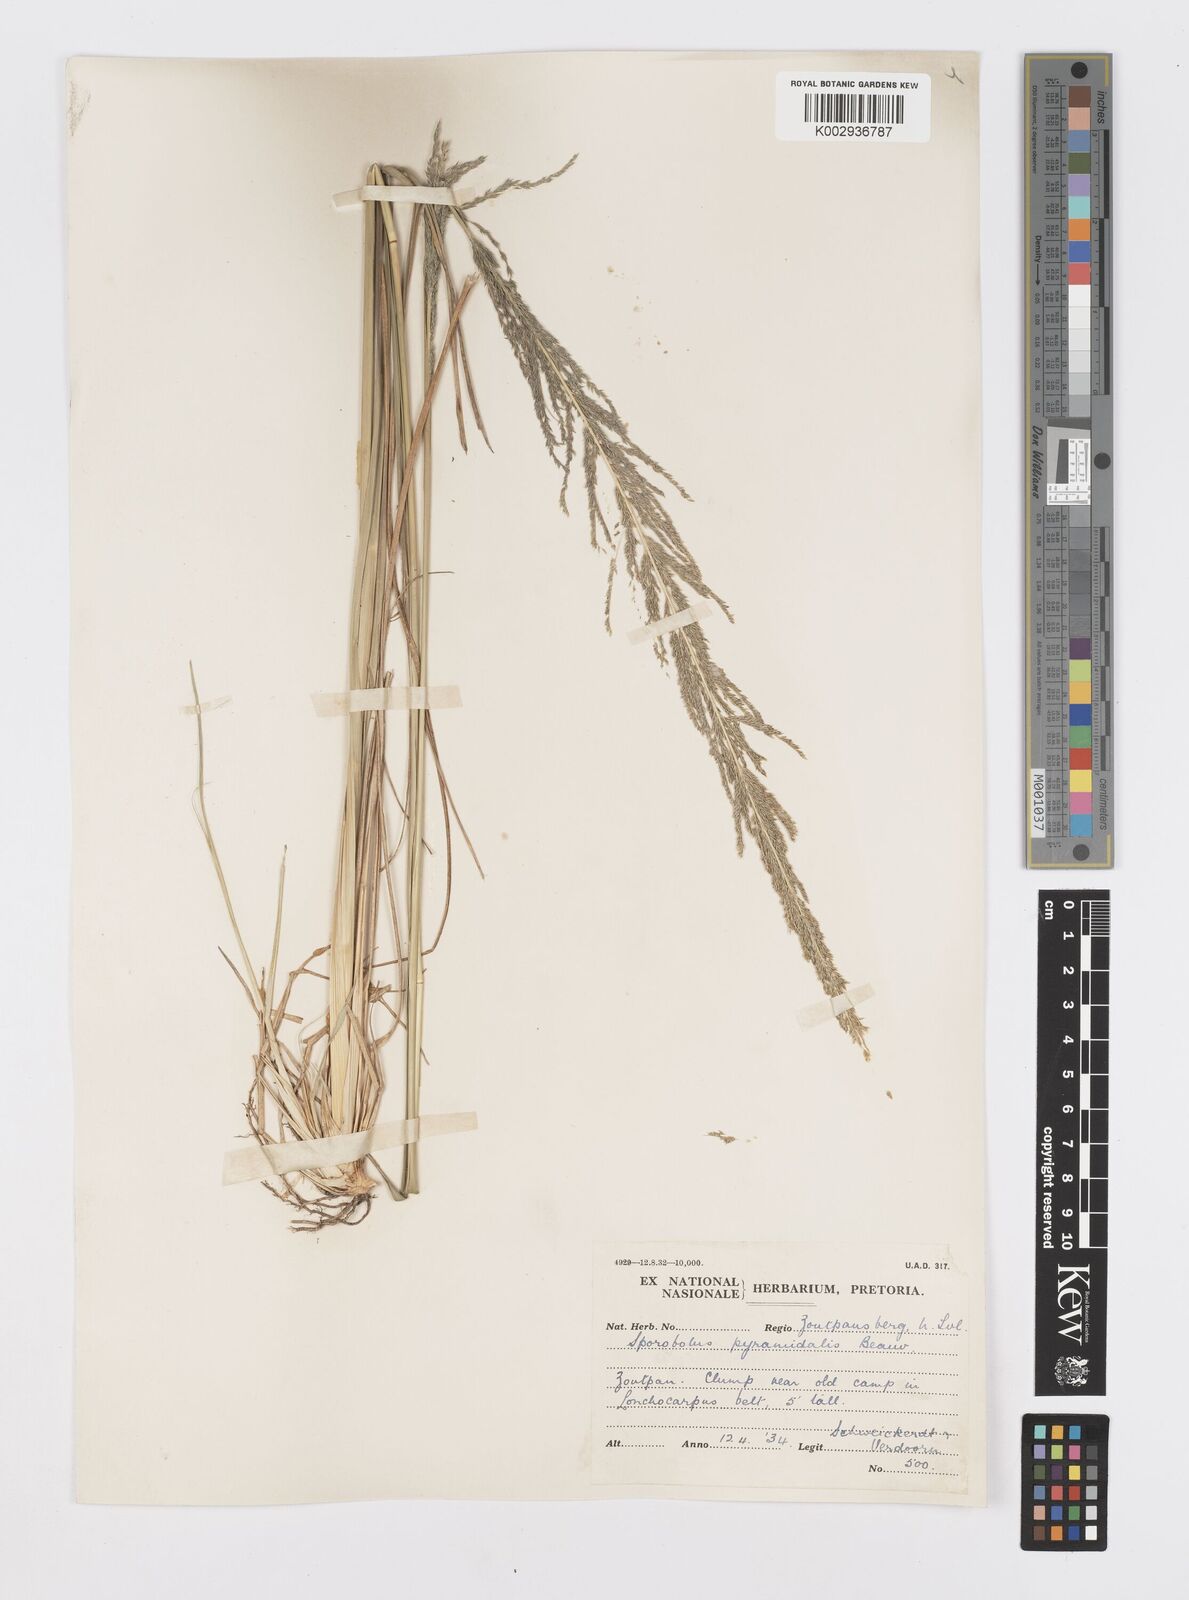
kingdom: Plantae
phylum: Tracheophyta
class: Liliopsida
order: Poales
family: Poaceae
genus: Sporobolus
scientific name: Sporobolus pyramidalis
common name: West indian dropseed
